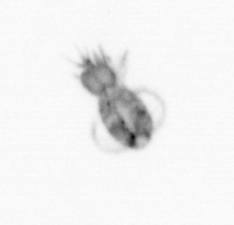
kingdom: Animalia
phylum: Arthropoda
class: Copepoda
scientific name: Copepoda
